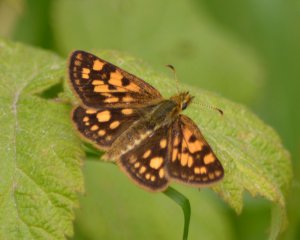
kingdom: Animalia
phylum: Arthropoda
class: Insecta
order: Lepidoptera
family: Hesperiidae
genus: Carterocephalus
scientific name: Carterocephalus palaemon
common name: Chequered Skipper
